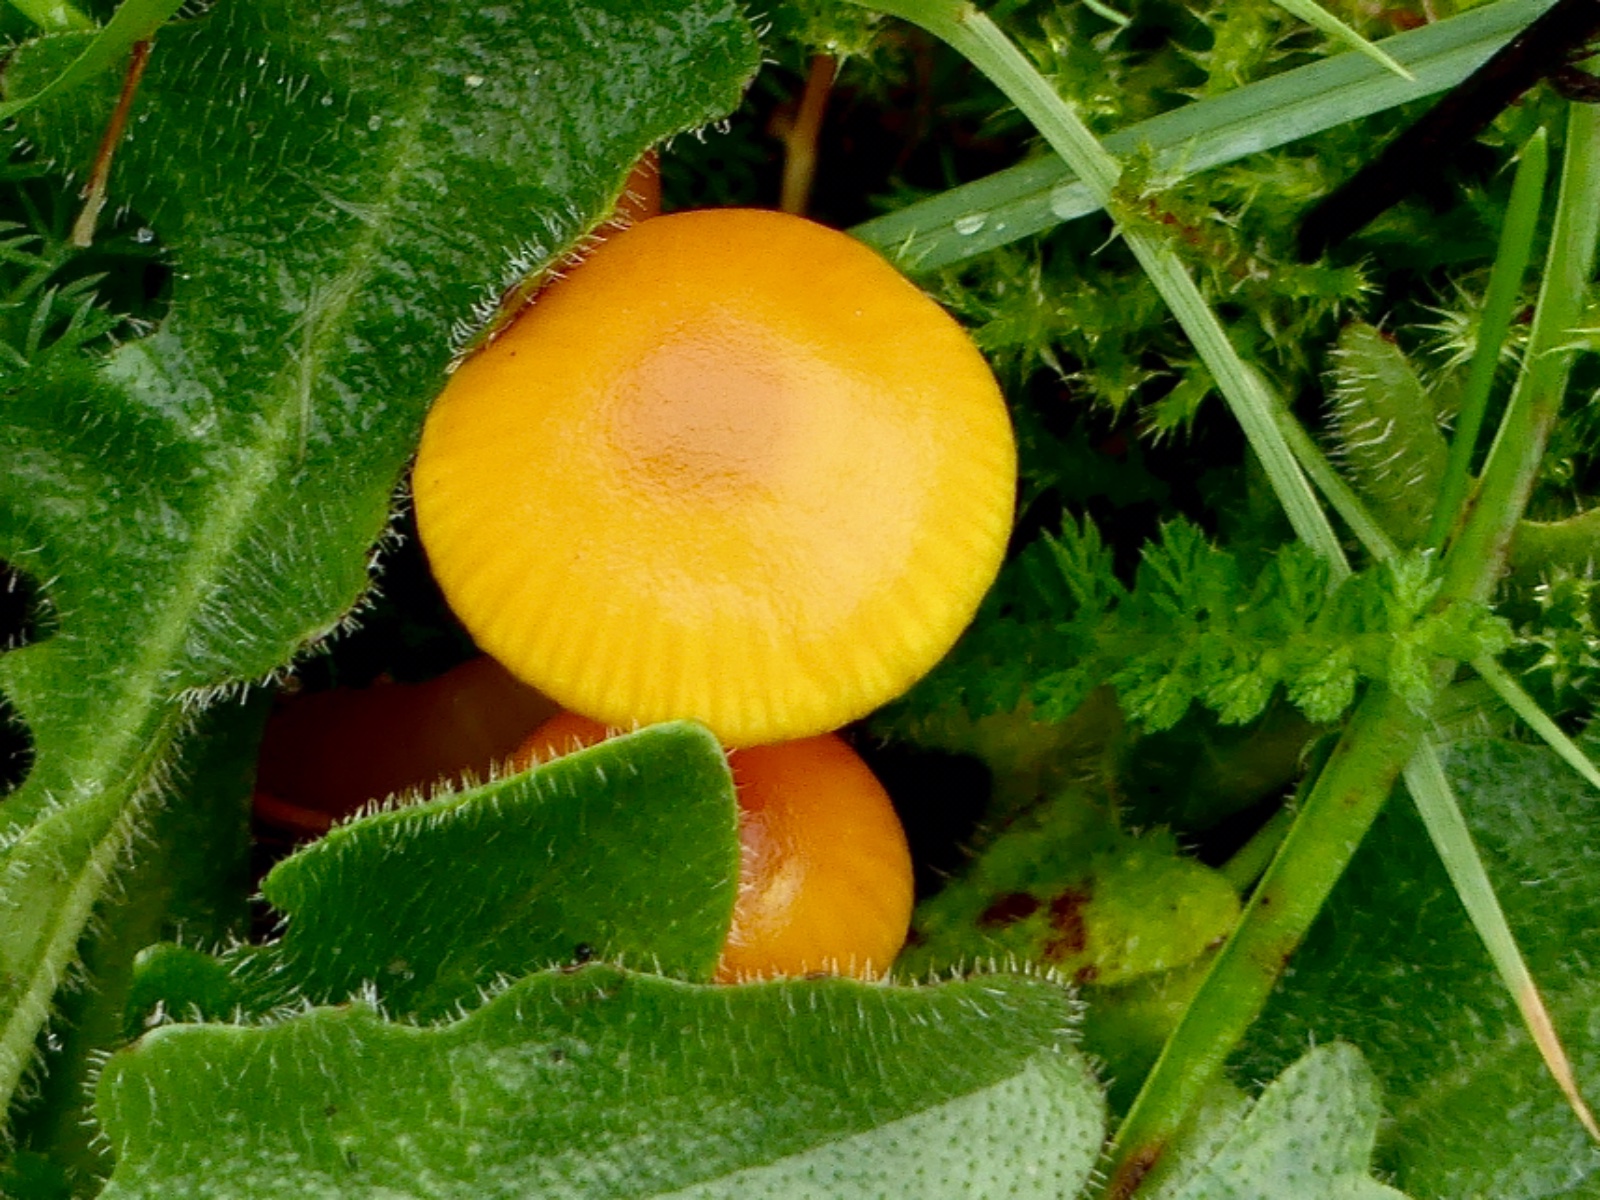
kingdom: Fungi
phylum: Basidiomycota
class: Agaricomycetes
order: Agaricales
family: Hygrophoraceae
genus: Hygrocybe
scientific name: Hygrocybe ceracea
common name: voksgul vokshat
